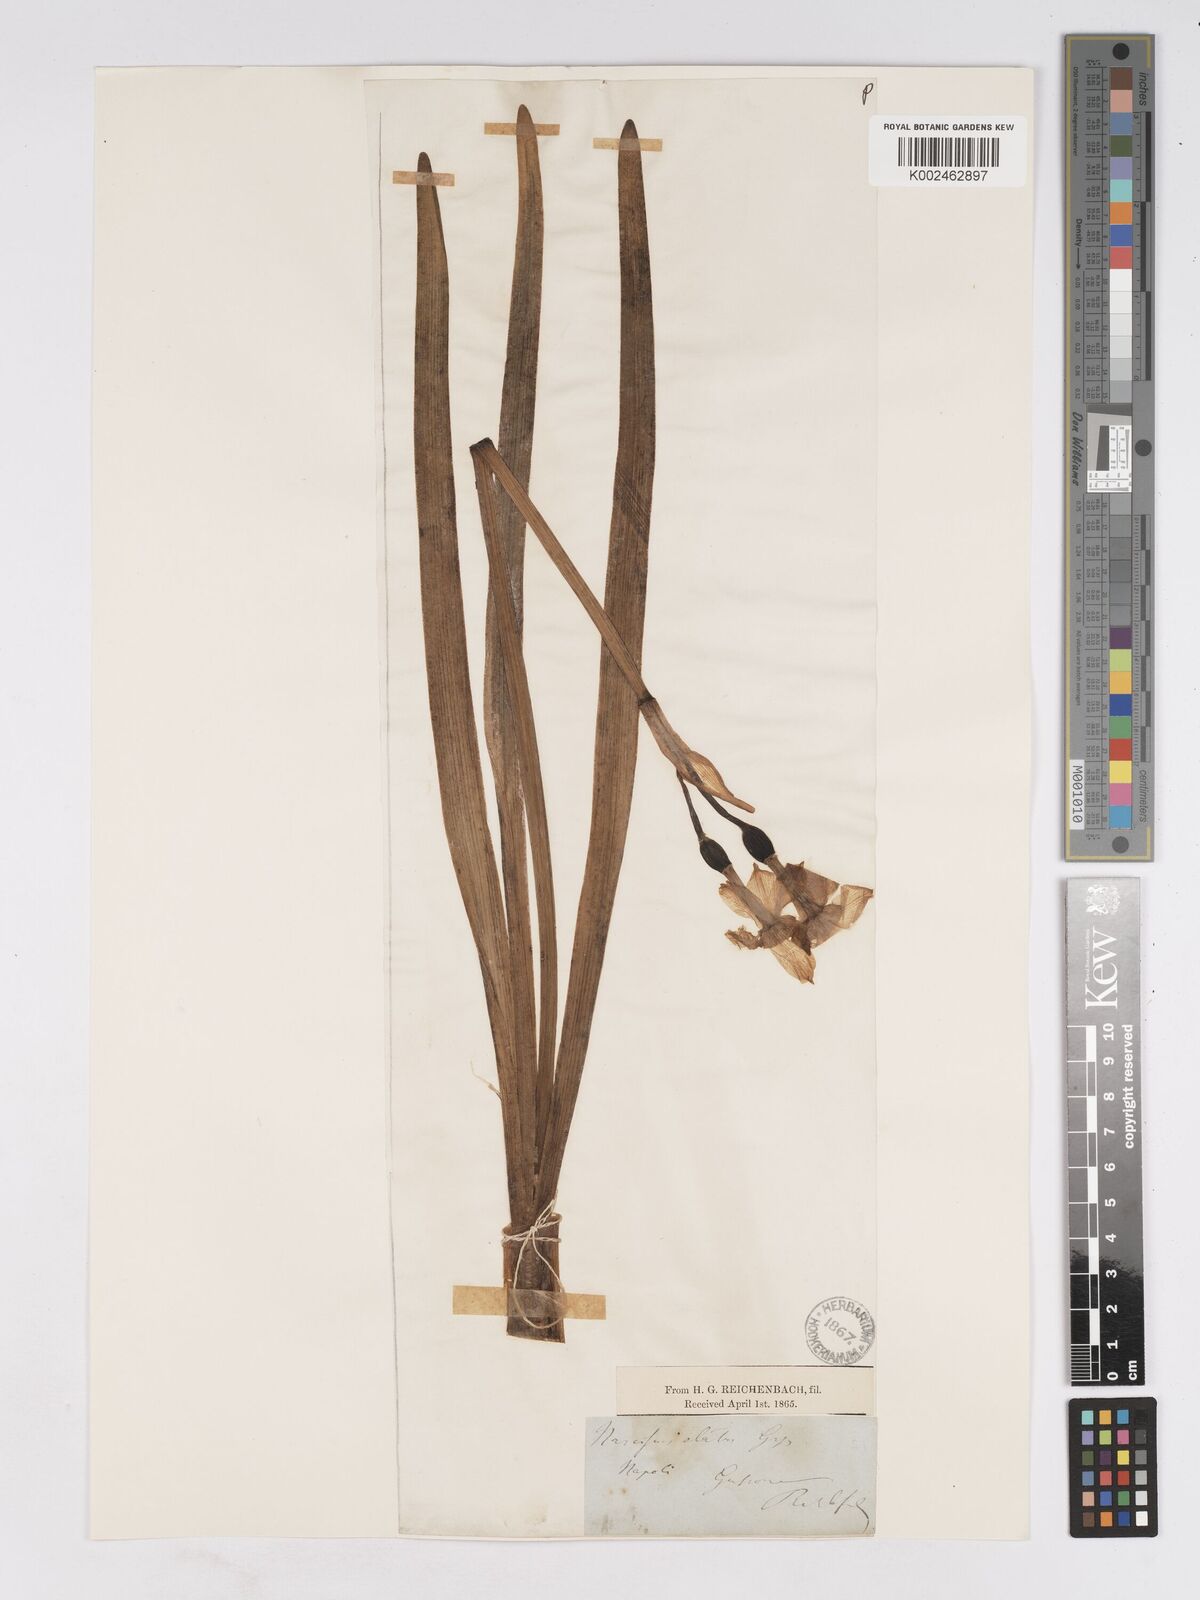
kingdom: Plantae
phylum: Tracheophyta
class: Liliopsida
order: Asparagales
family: Amaryllidaceae
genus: Narcissus
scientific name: Narcissus tazetta
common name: Bunch-flowered daffodil
